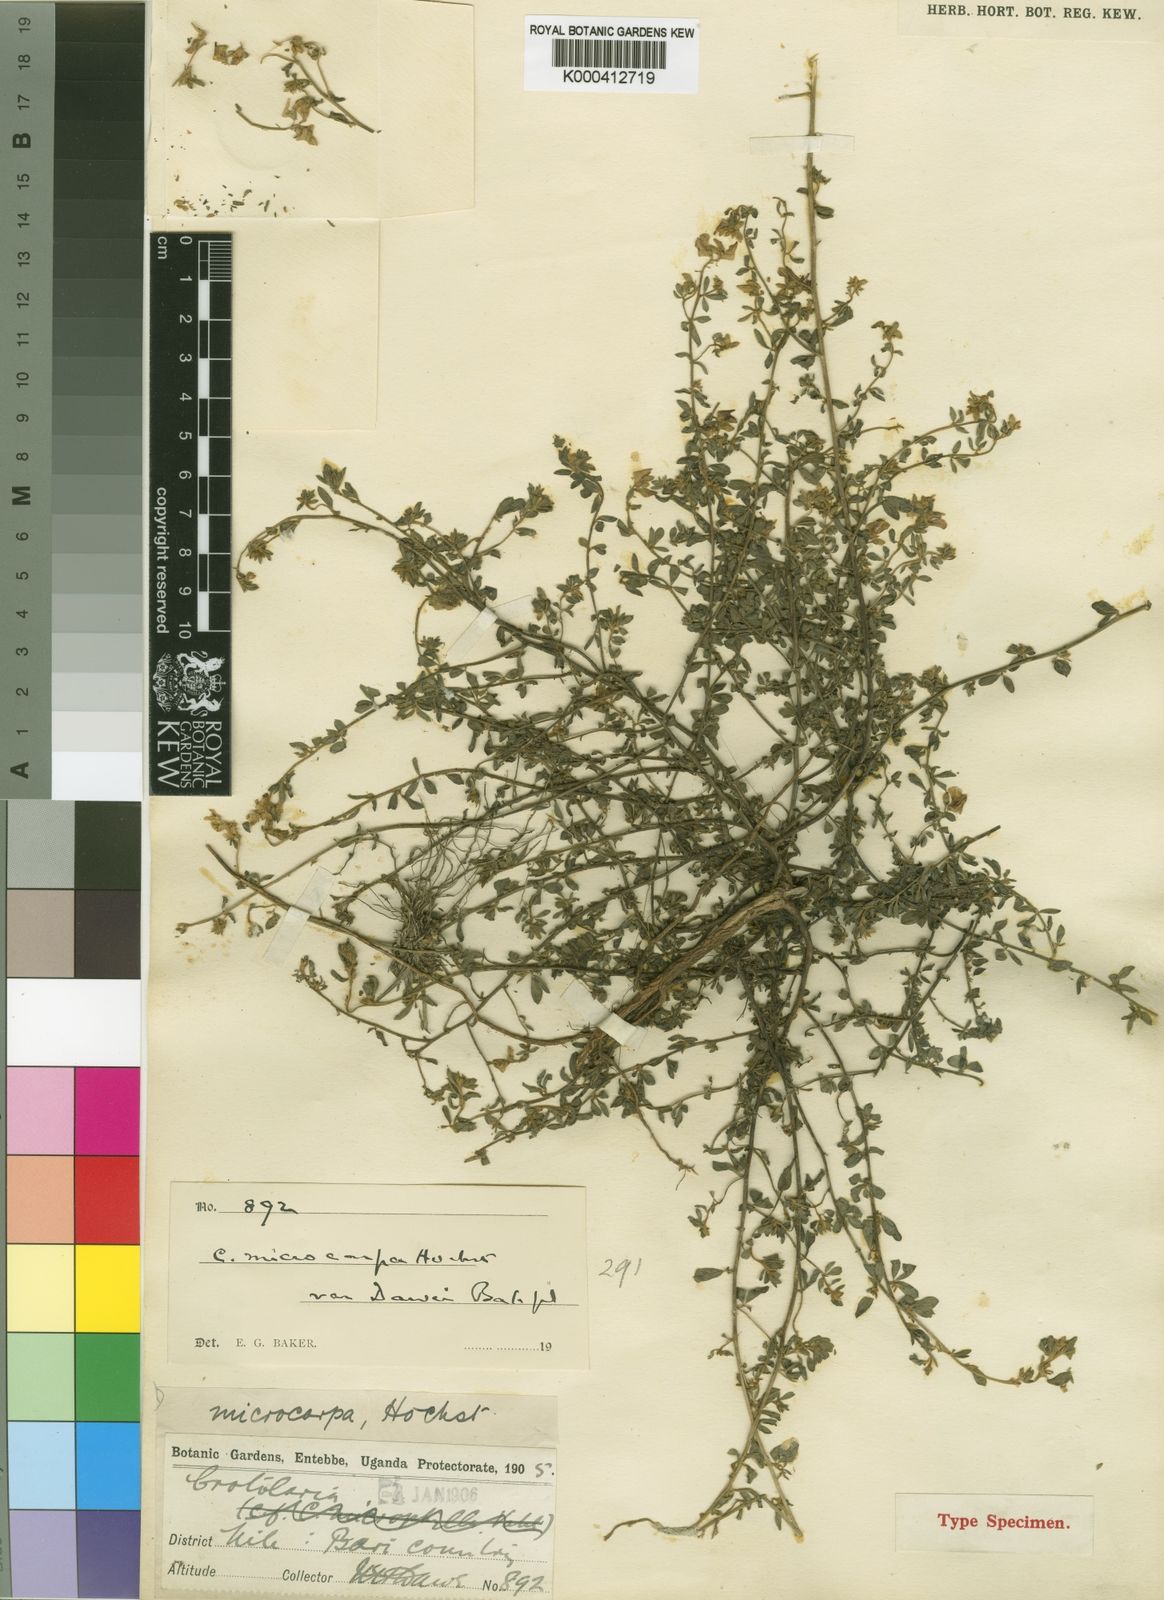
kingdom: Plantae
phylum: Tracheophyta
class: Magnoliopsida
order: Fabales
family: Fabaceae
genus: Crotalaria
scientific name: Crotalaria microcarpa
